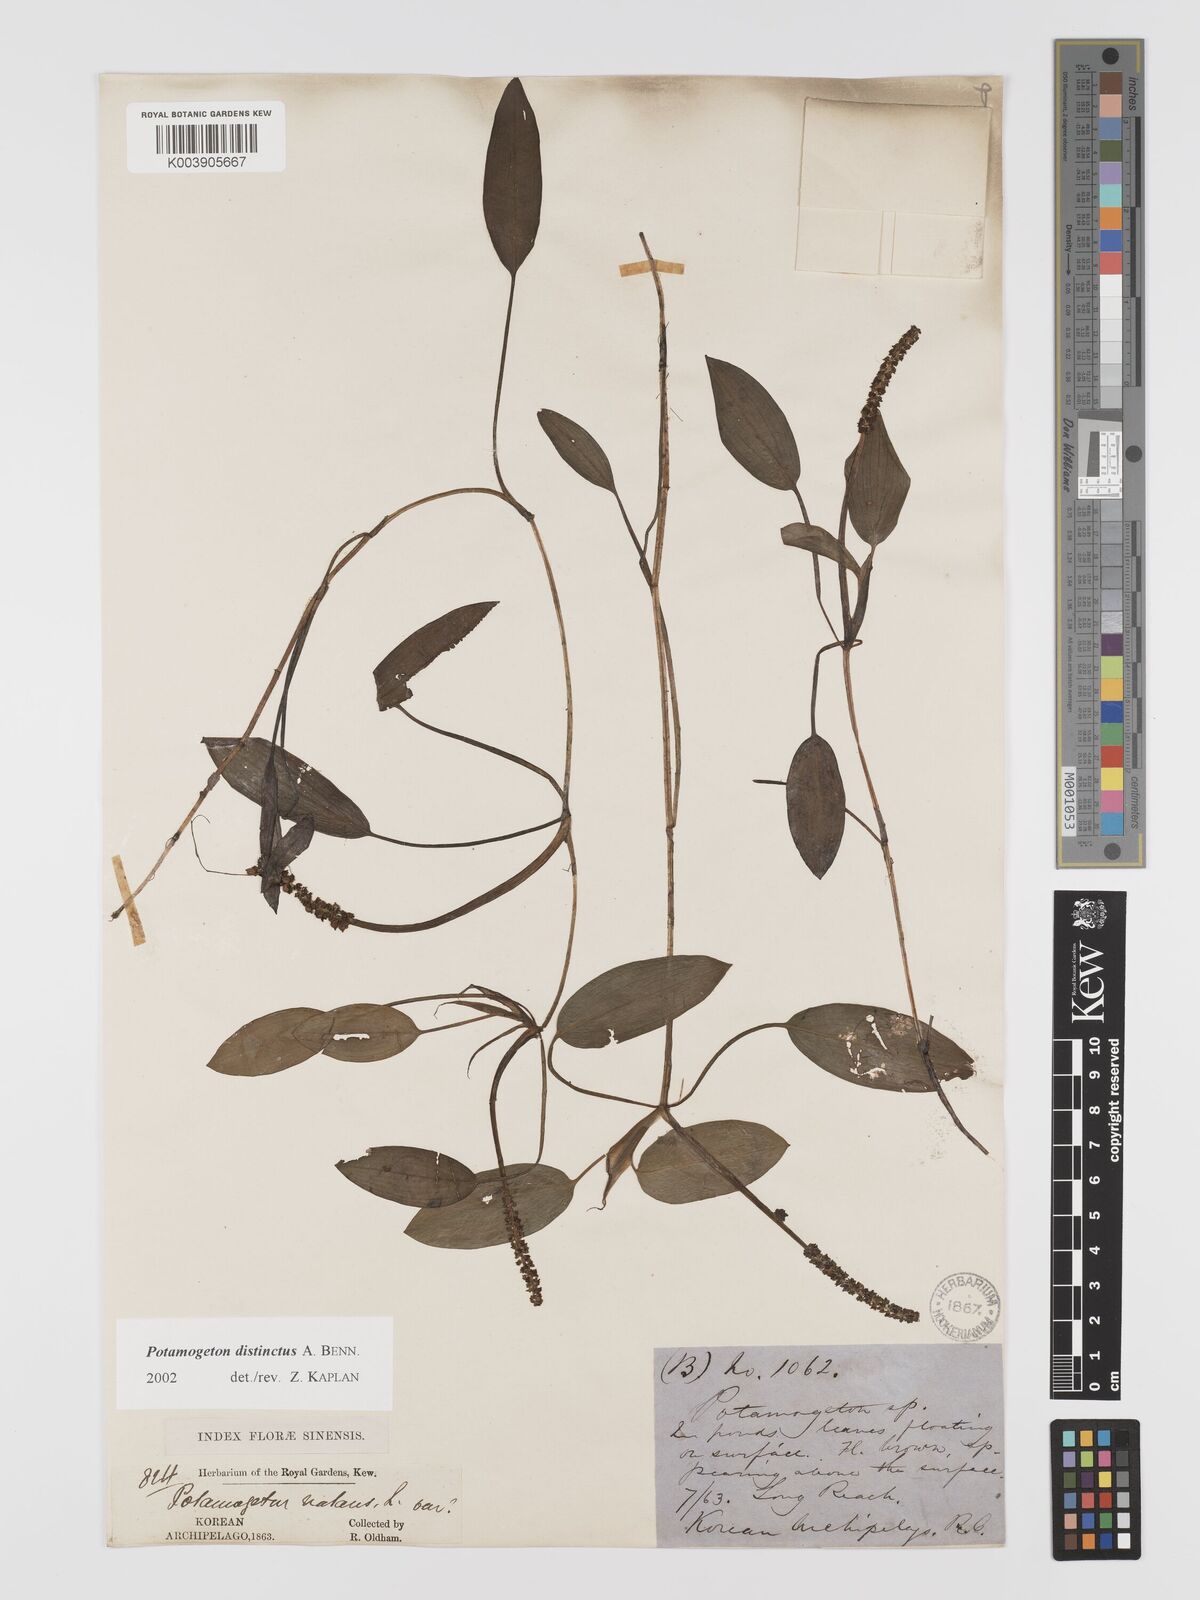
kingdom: Plantae
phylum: Tracheophyta
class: Liliopsida
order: Alismatales
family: Potamogetonaceae
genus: Potamogeton
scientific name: Potamogeton natans
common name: Broad-leaved pondweed
